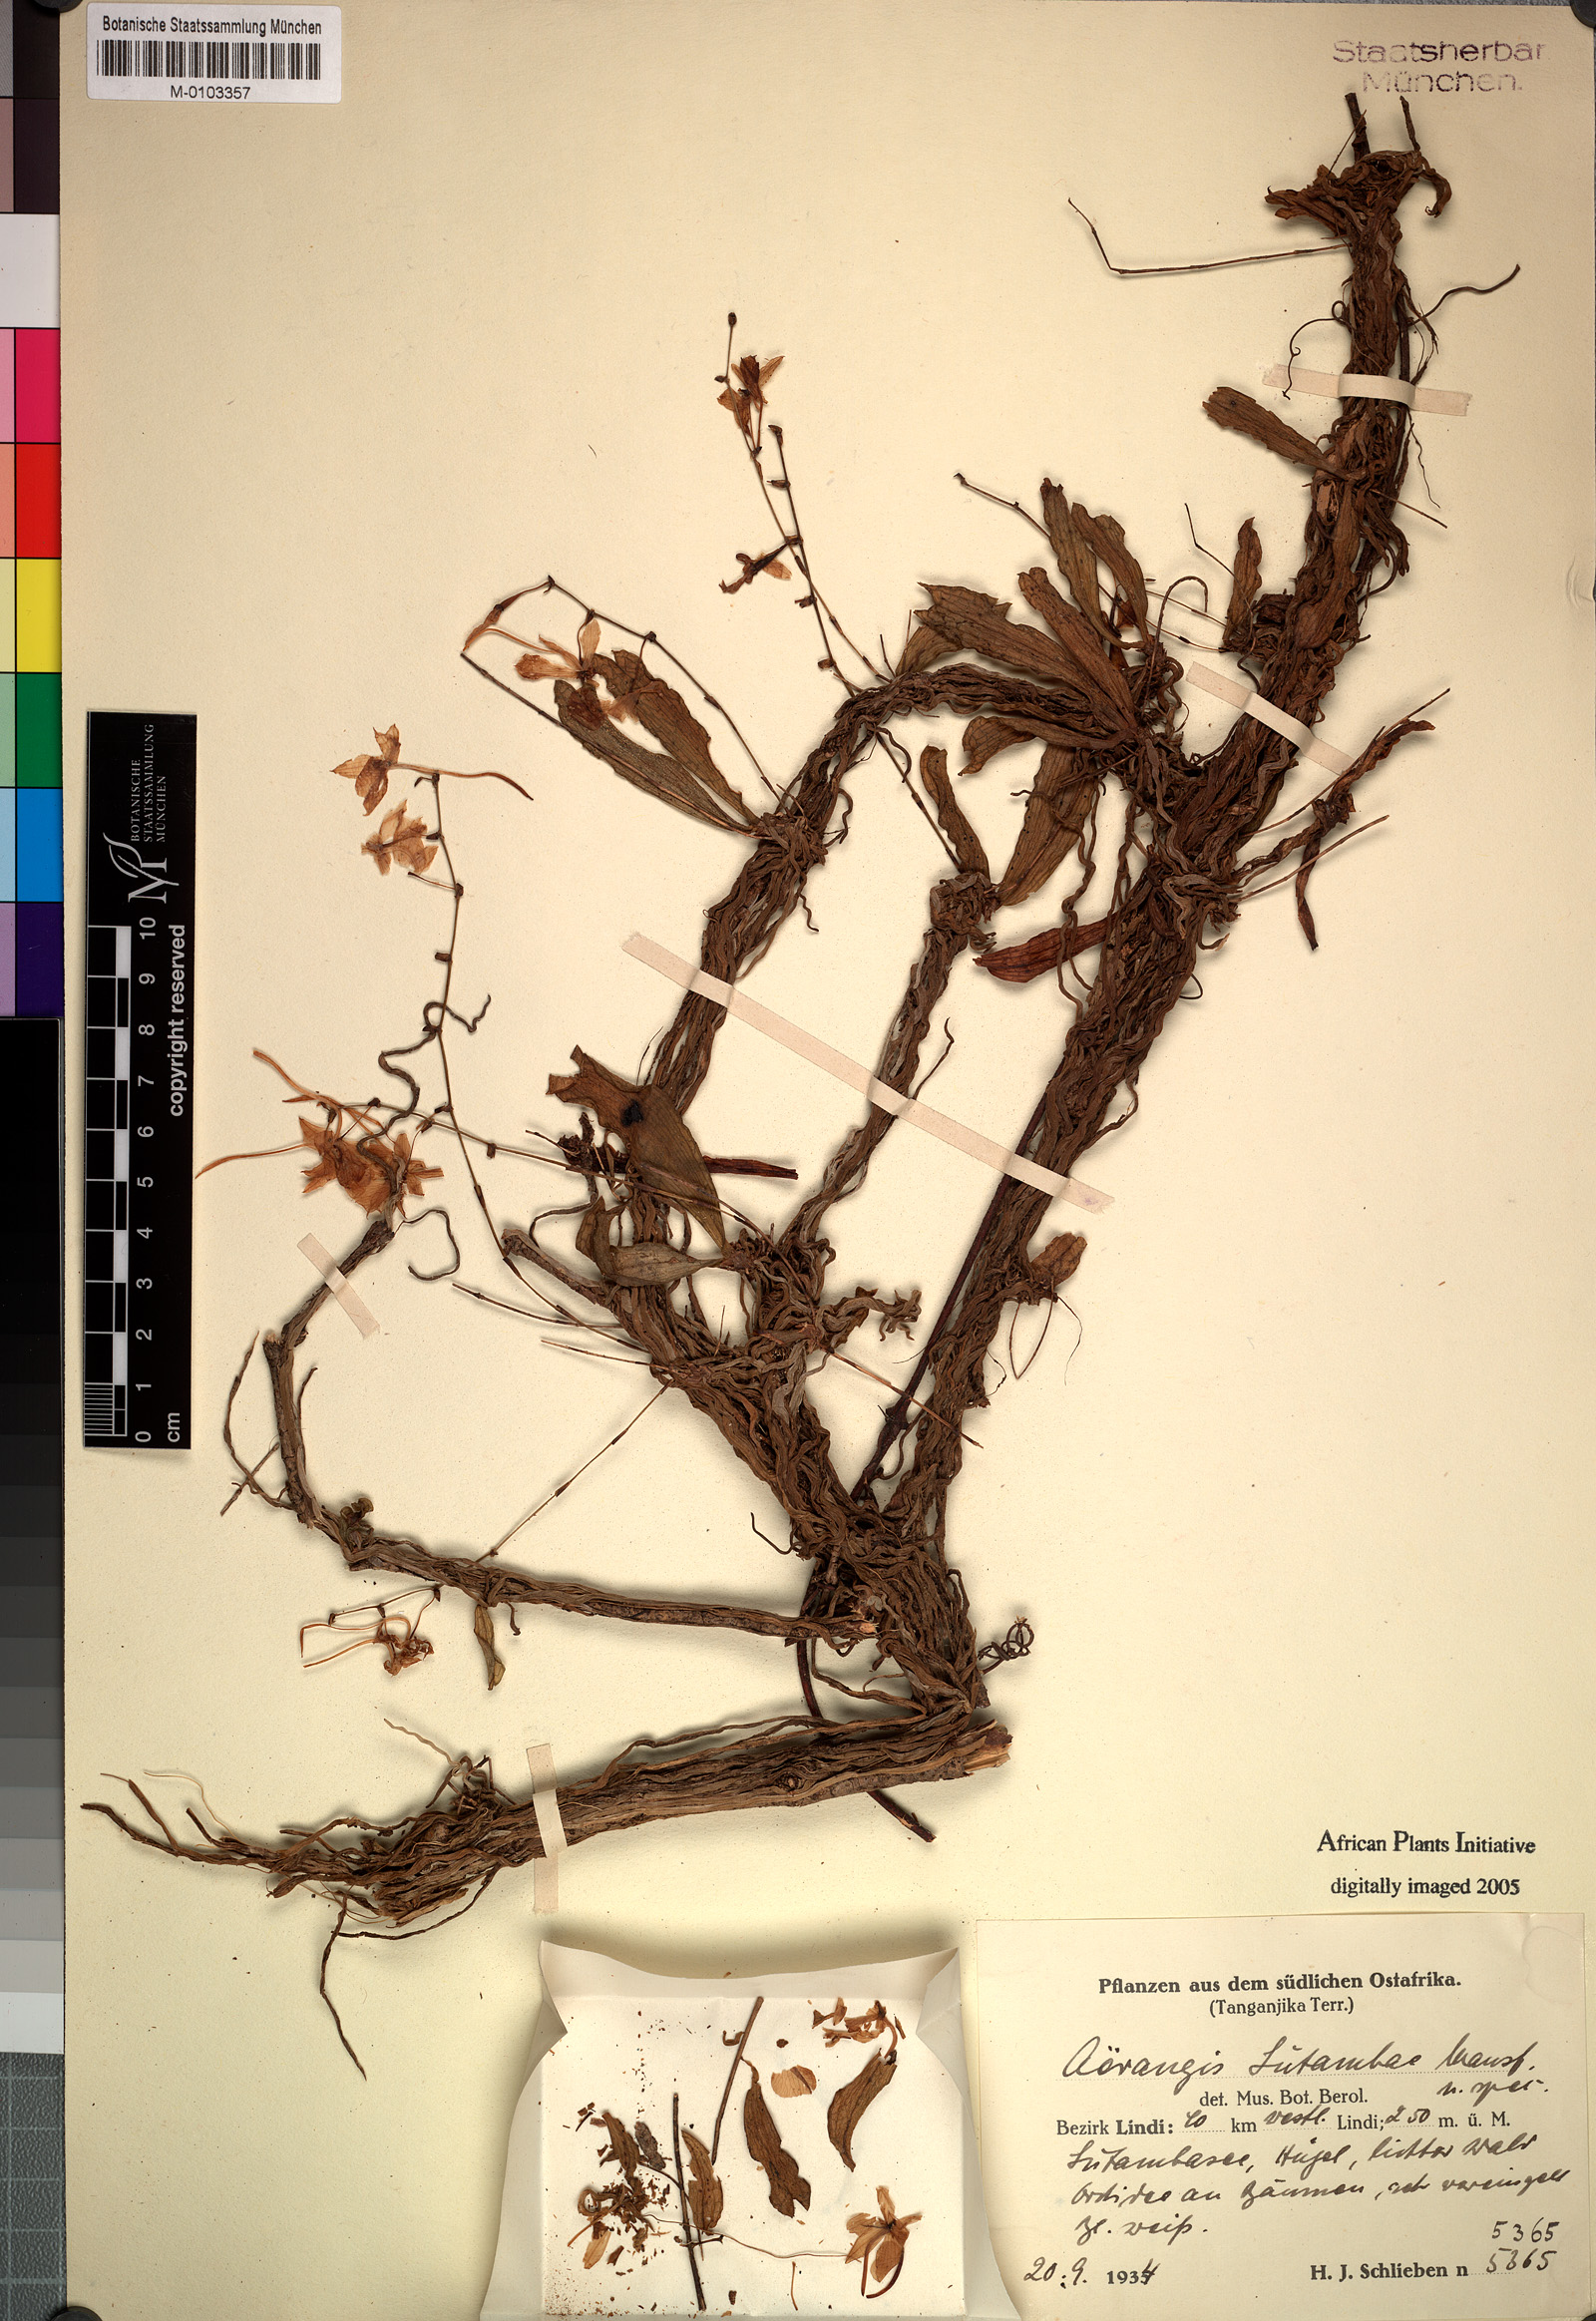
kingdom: Plantae
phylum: Tracheophyta
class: Liliopsida
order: Asparagales
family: Orchidaceae
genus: Aerangis
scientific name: Aerangis alcicornis
